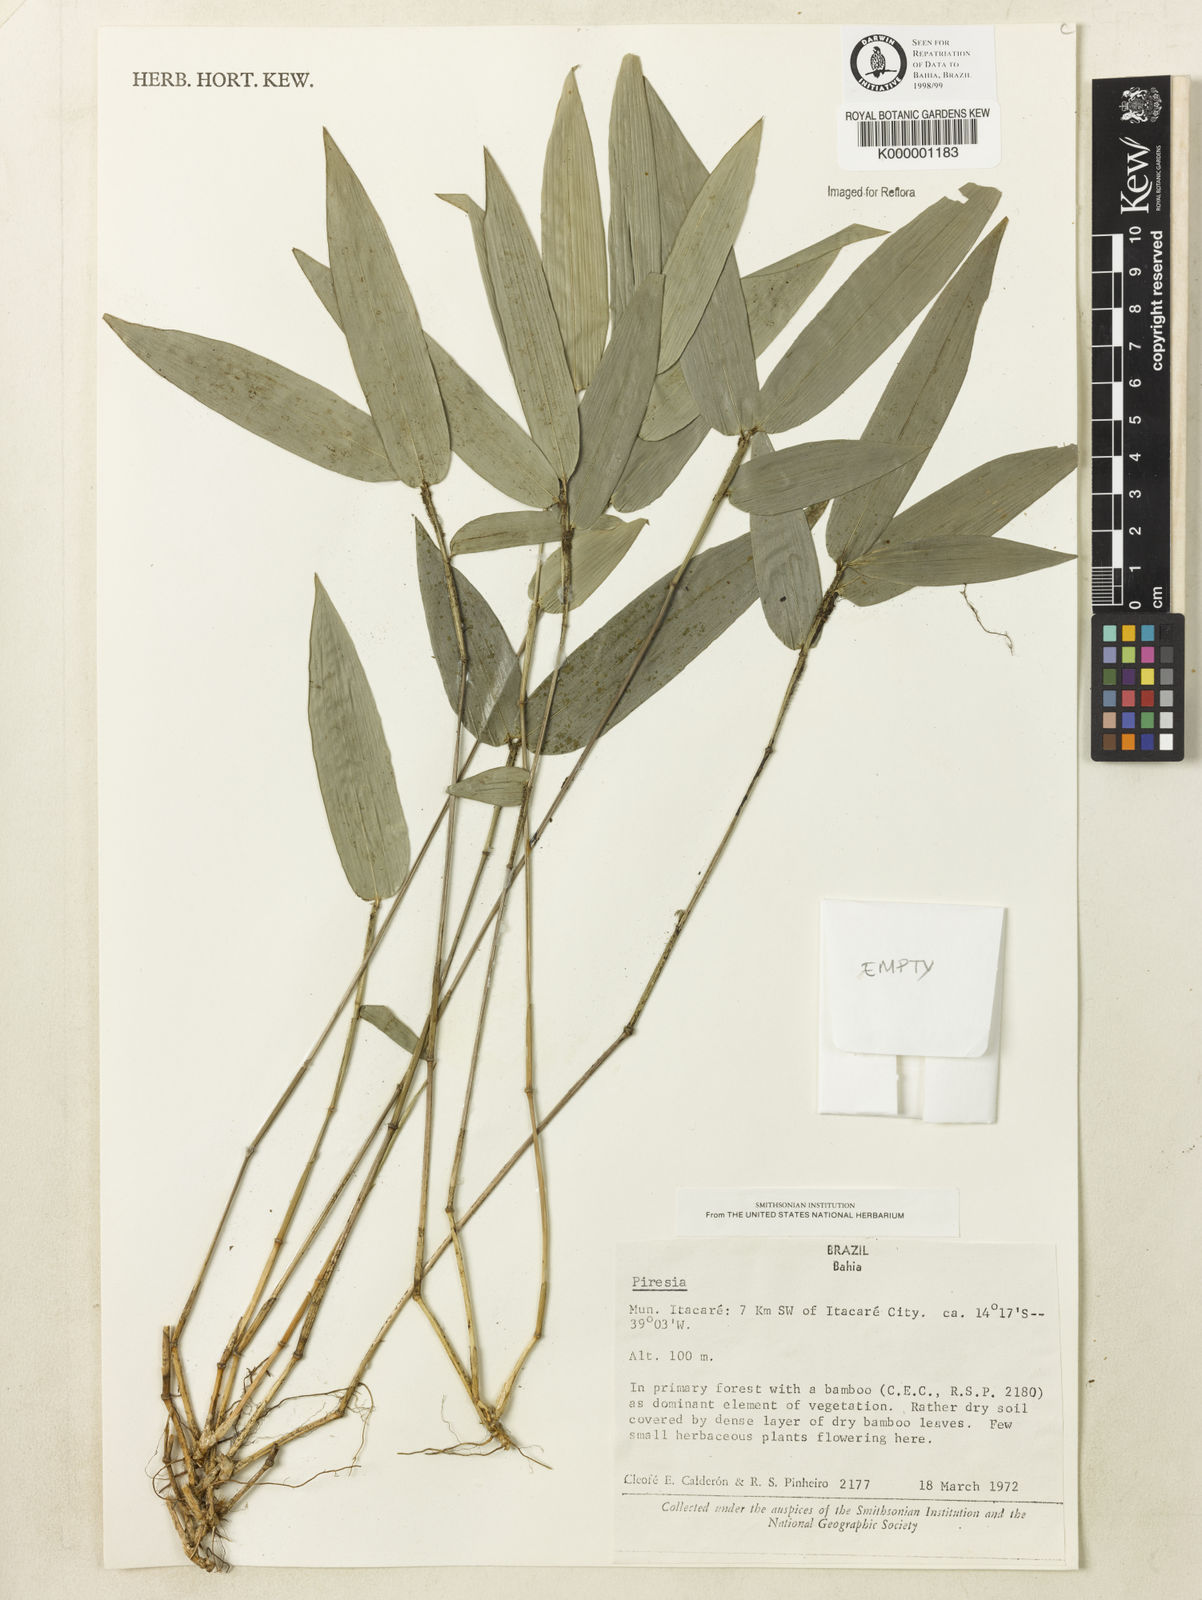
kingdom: Plantae
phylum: Tracheophyta
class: Liliopsida
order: Poales
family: Poaceae
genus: Piresia
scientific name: Piresia
